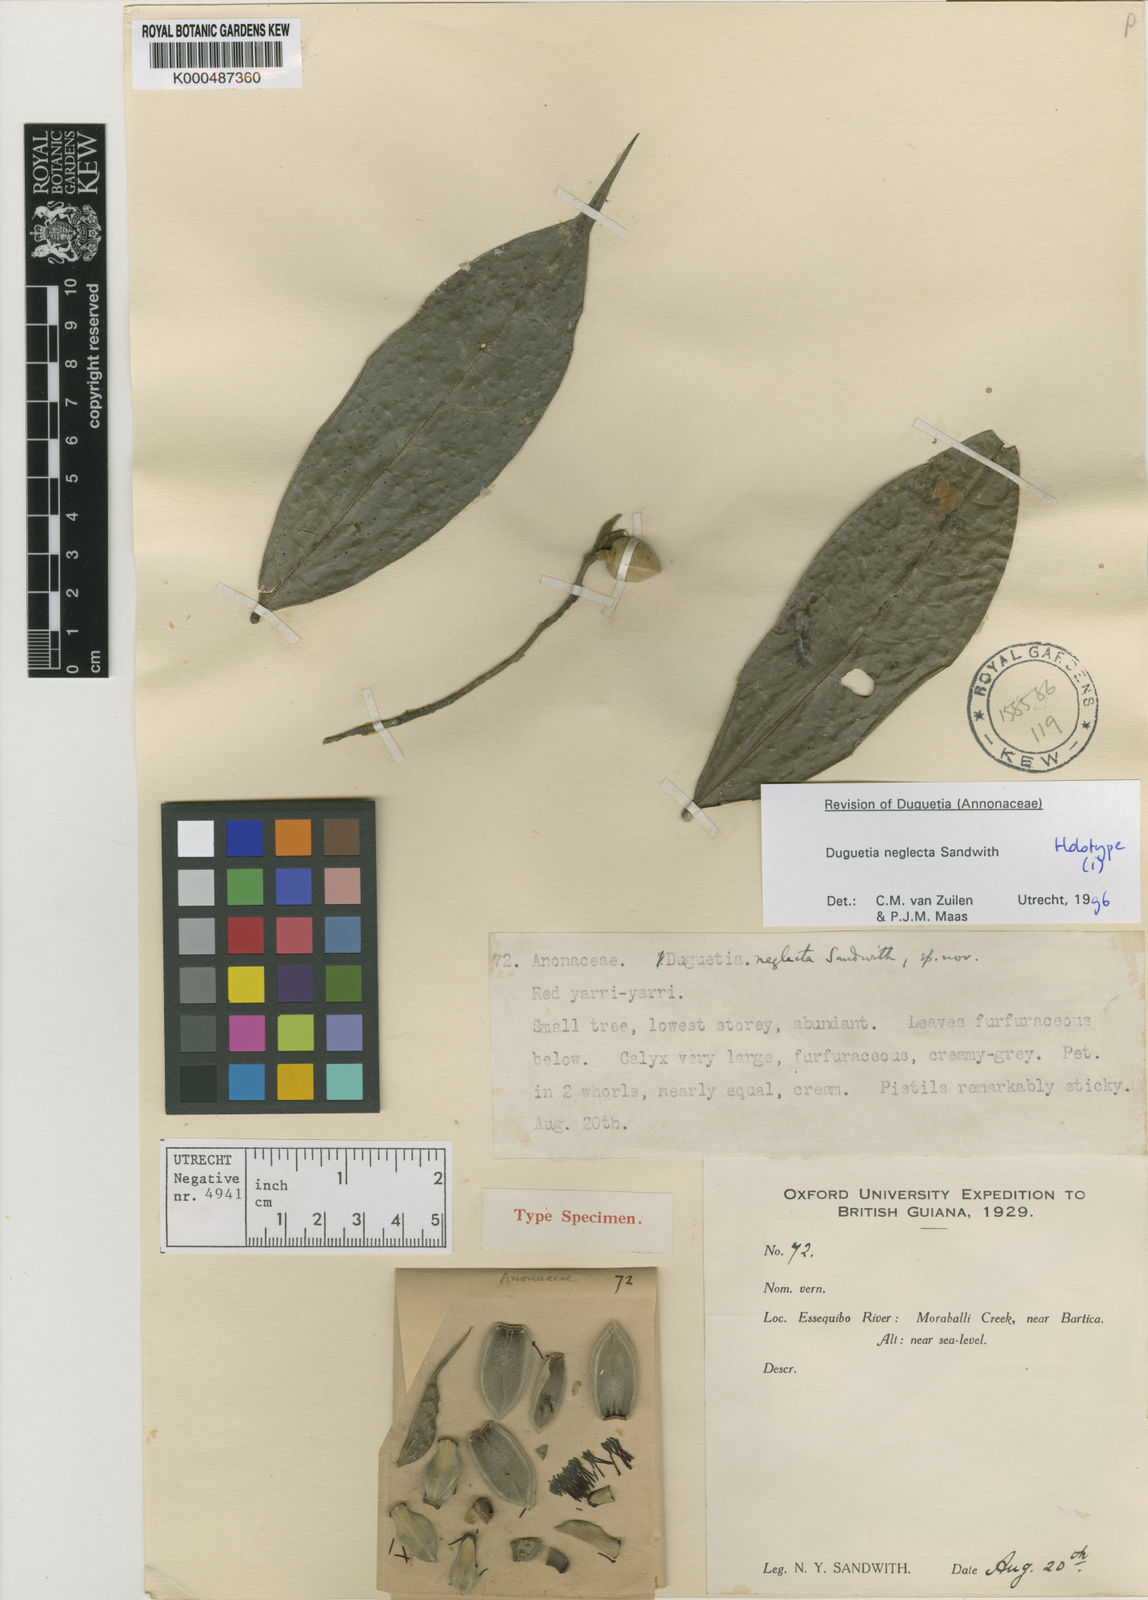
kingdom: Plantae
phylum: Tracheophyta
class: Magnoliopsida
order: Magnoliales
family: Annonaceae
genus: Duguetia
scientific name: Duguetia neglecta
